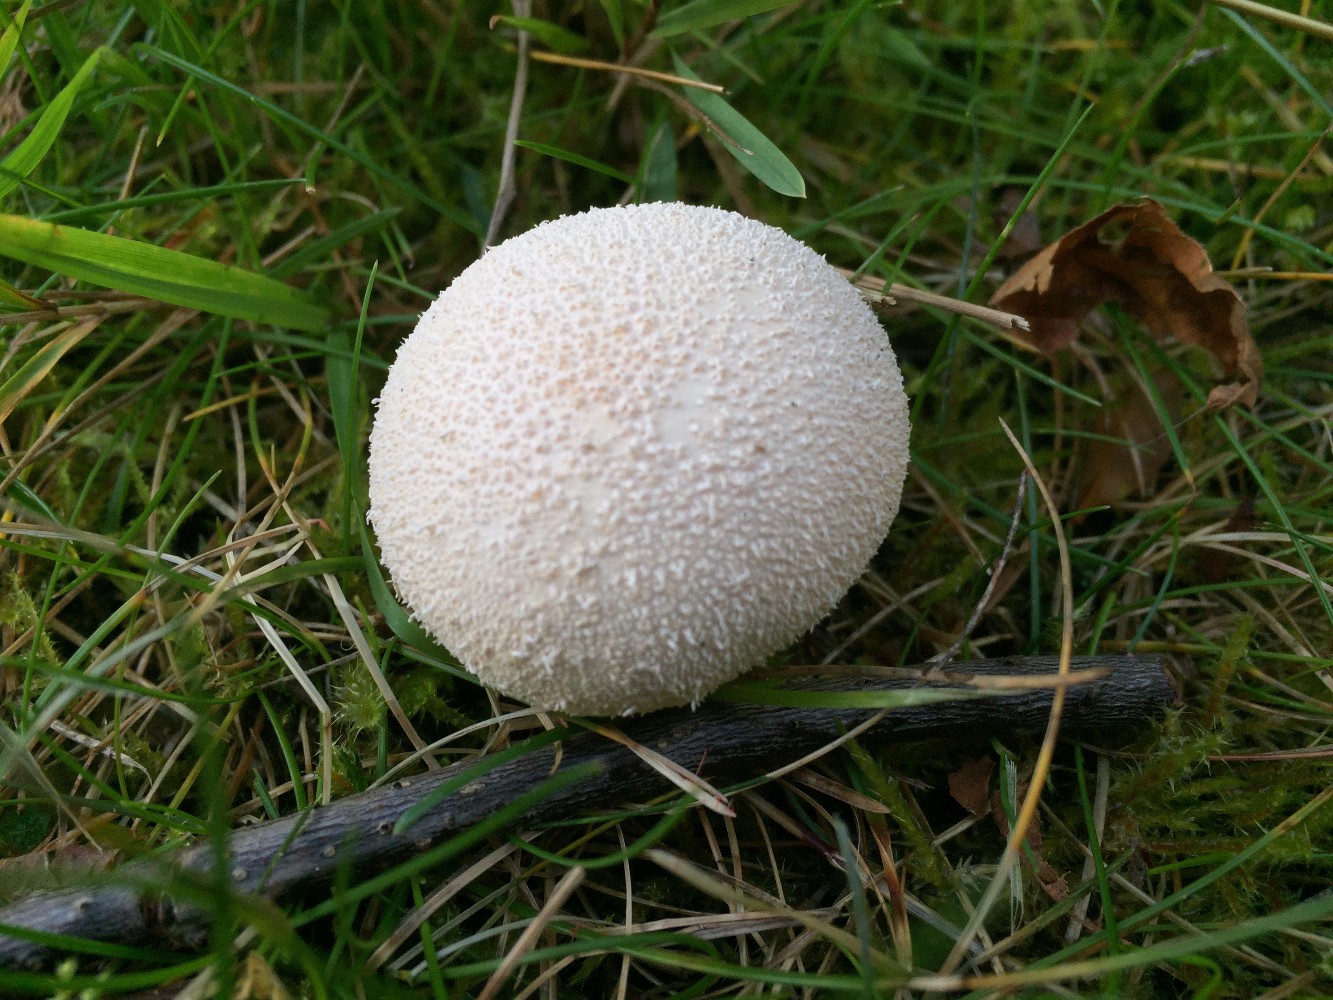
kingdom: Fungi
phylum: Basidiomycota
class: Agaricomycetes
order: Agaricales
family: Lycoperdaceae
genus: Lycoperdon
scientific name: Lycoperdon pratense
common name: flad støvbold
